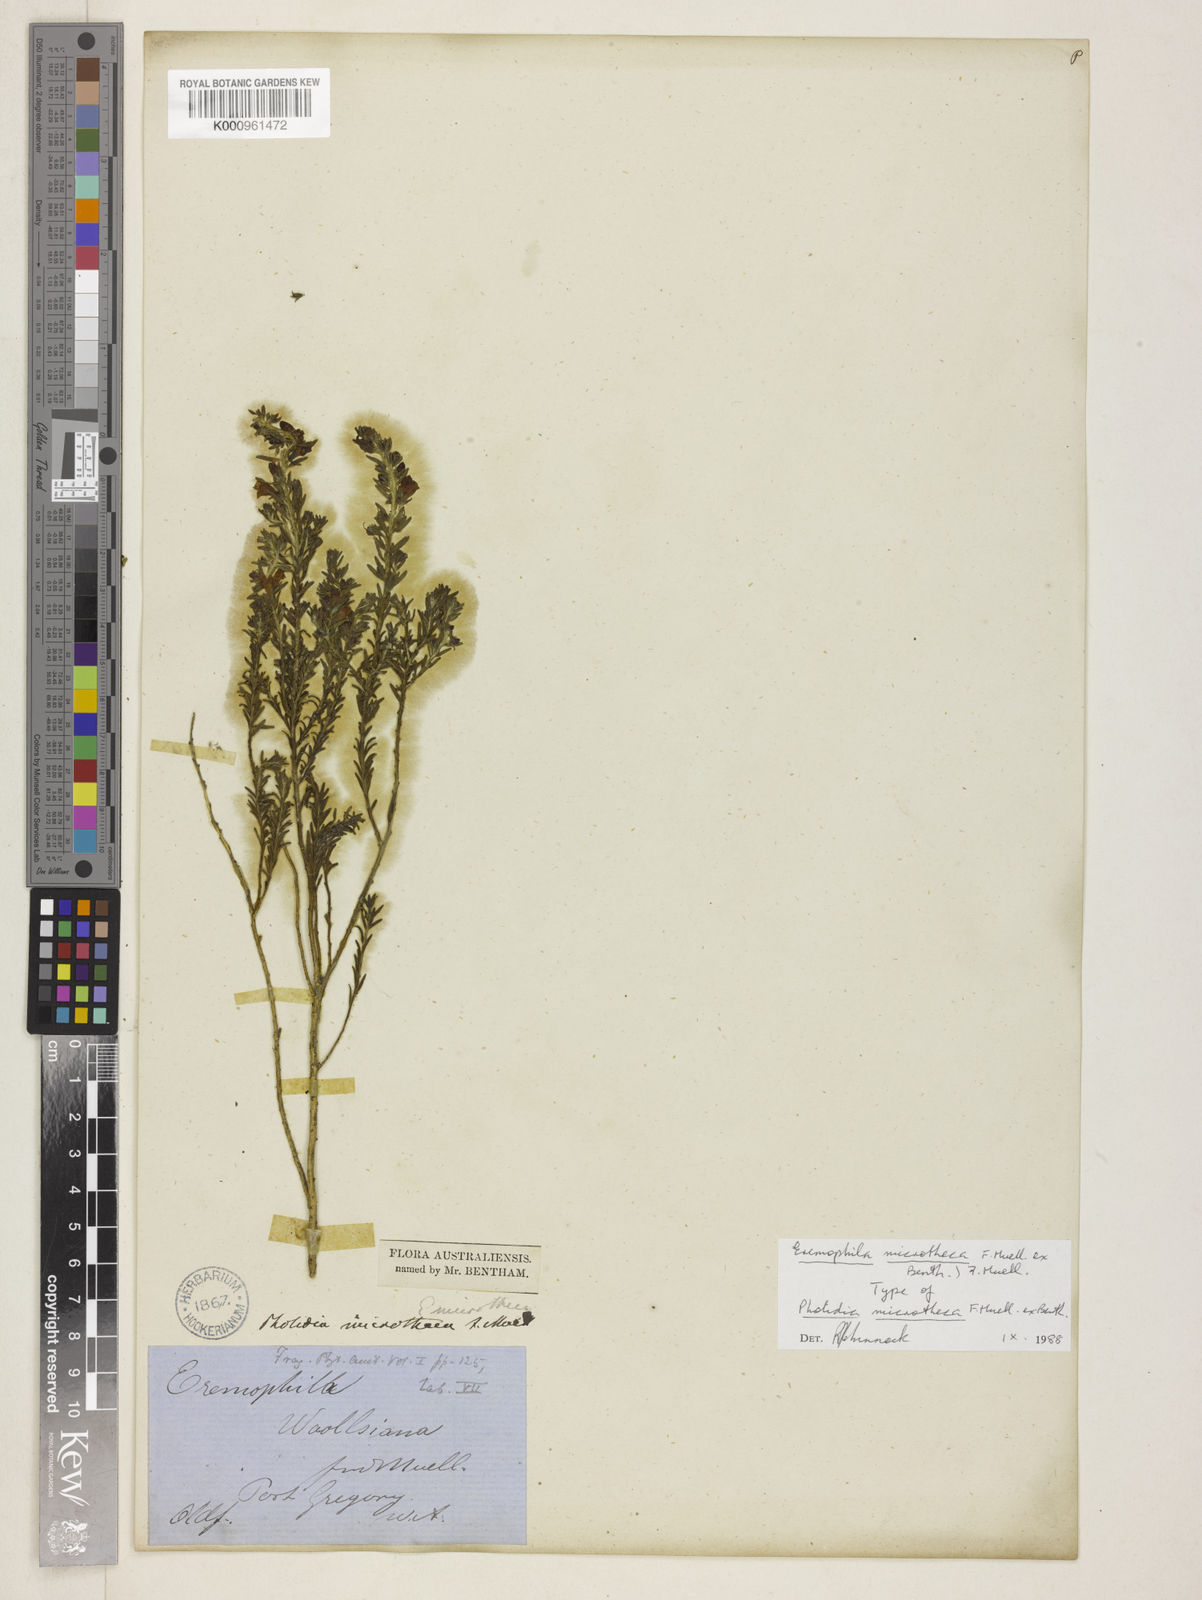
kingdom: Plantae
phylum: Tracheophyta
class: Magnoliopsida
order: Lamiales
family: Scrophulariaceae
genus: Eremophila
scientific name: Eremophila microtheca
